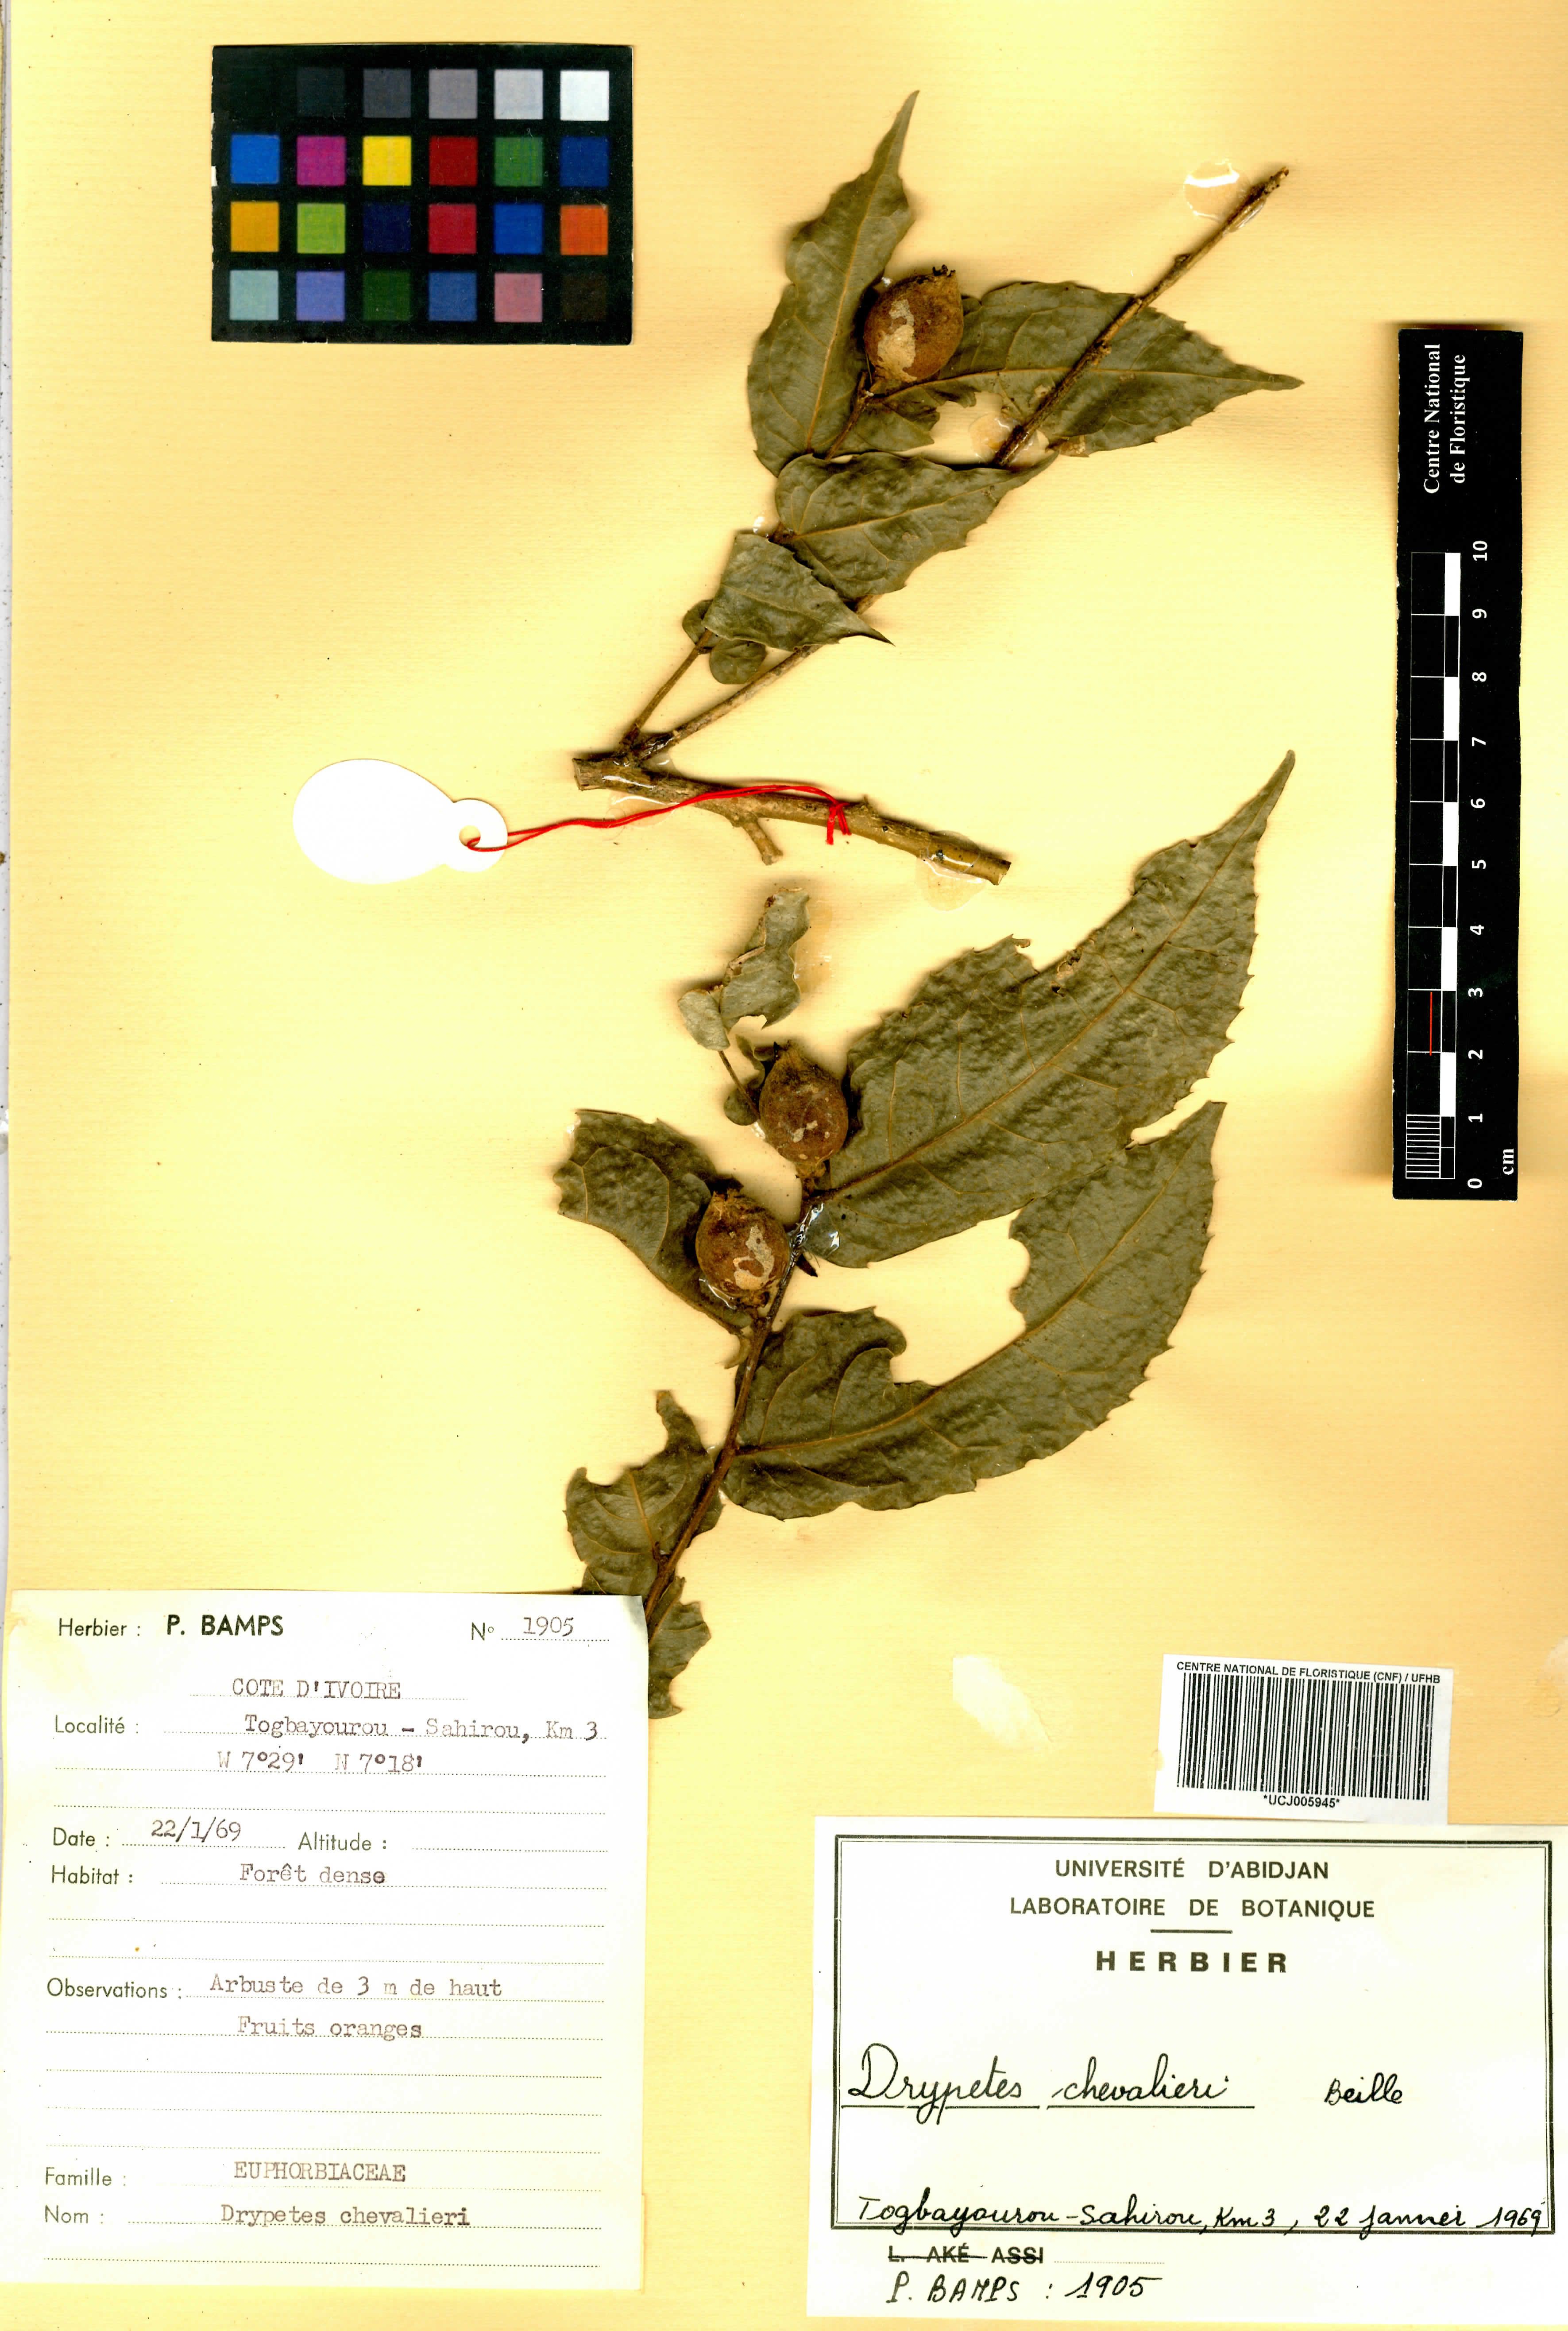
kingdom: Plantae
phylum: Tracheophyta
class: Magnoliopsida
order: Malpighiales
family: Putranjivaceae
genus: Drypetes
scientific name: Drypetes chevalieri
